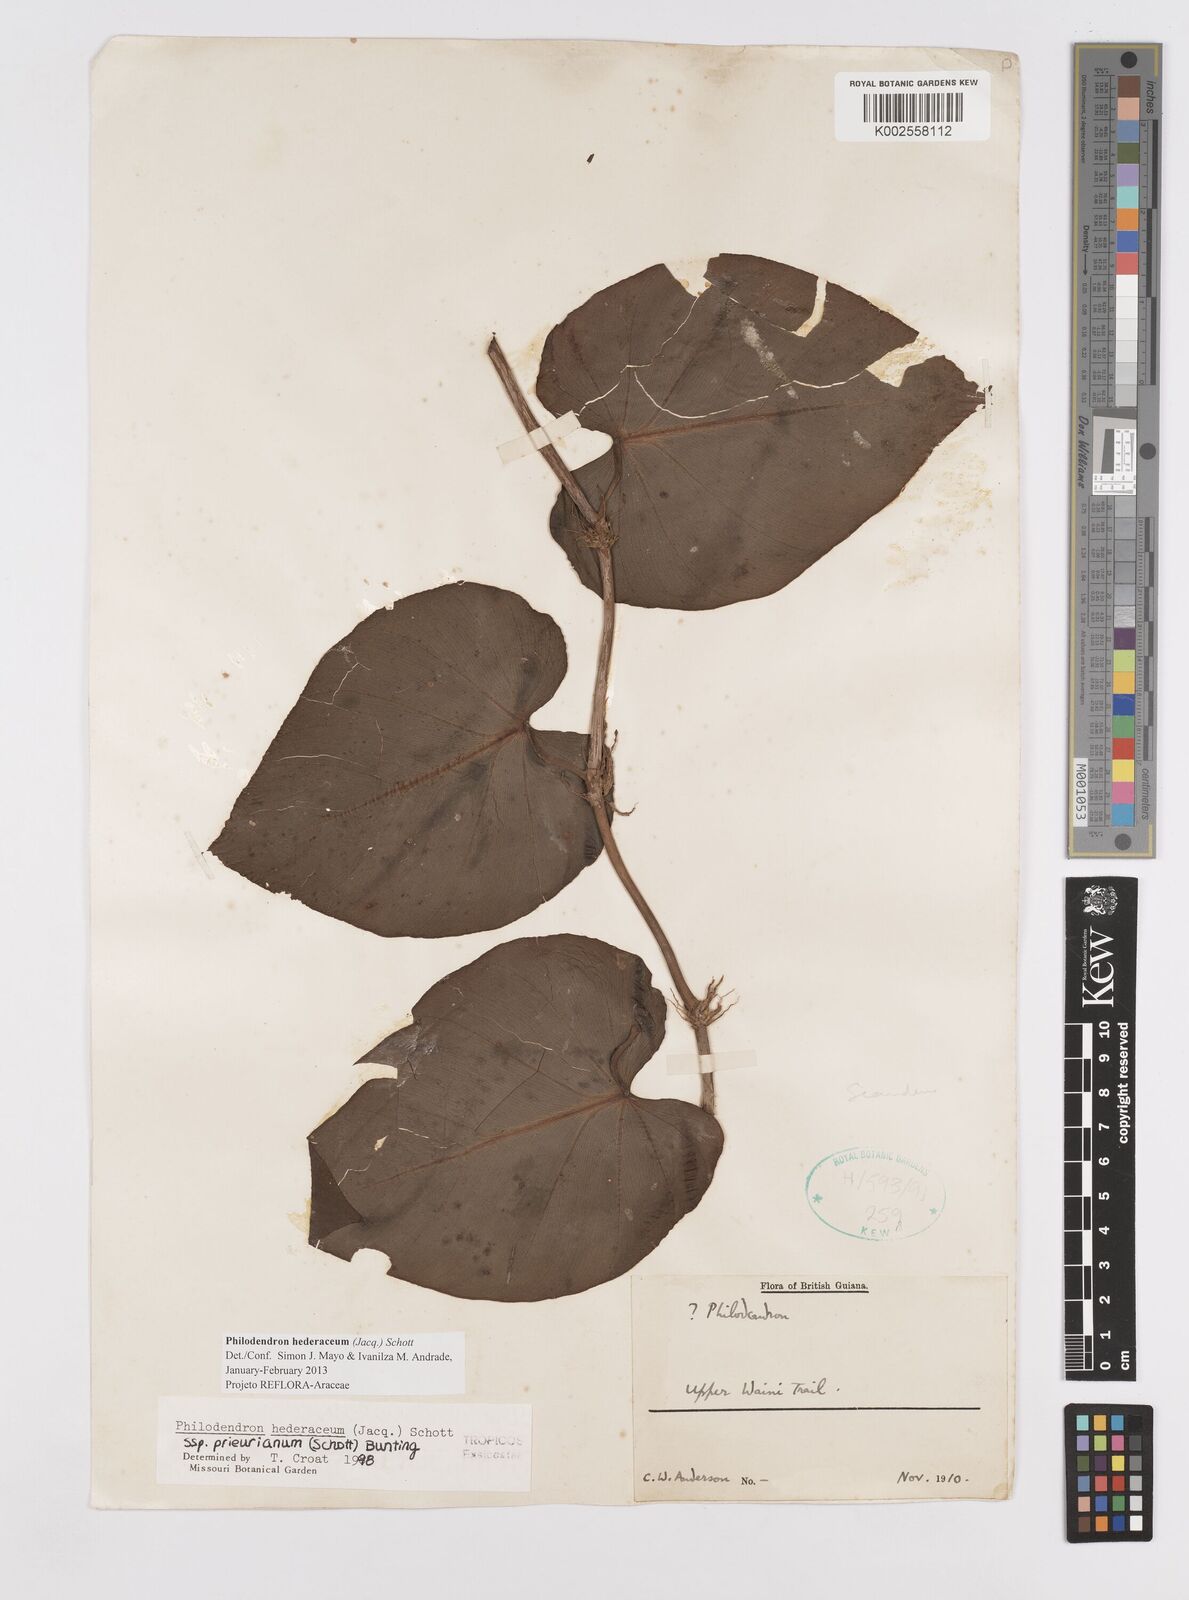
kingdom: Plantae
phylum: Tracheophyta
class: Liliopsida
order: Alismatales
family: Araceae
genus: Philodendron
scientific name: Philodendron hederaceum
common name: Vilevine
